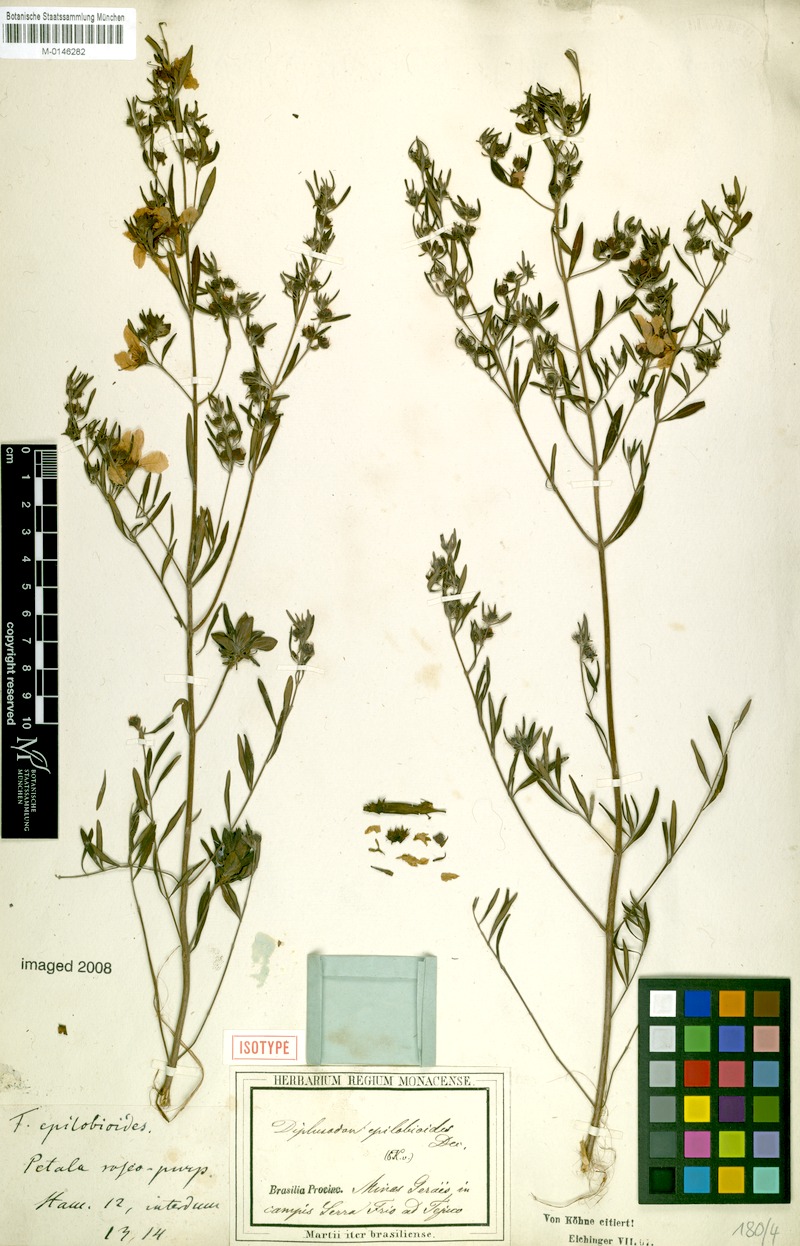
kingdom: Plantae
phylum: Tracheophyta
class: Magnoliopsida
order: Myrtales
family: Lythraceae
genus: Diplusodon
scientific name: Diplusodon epilobioides
